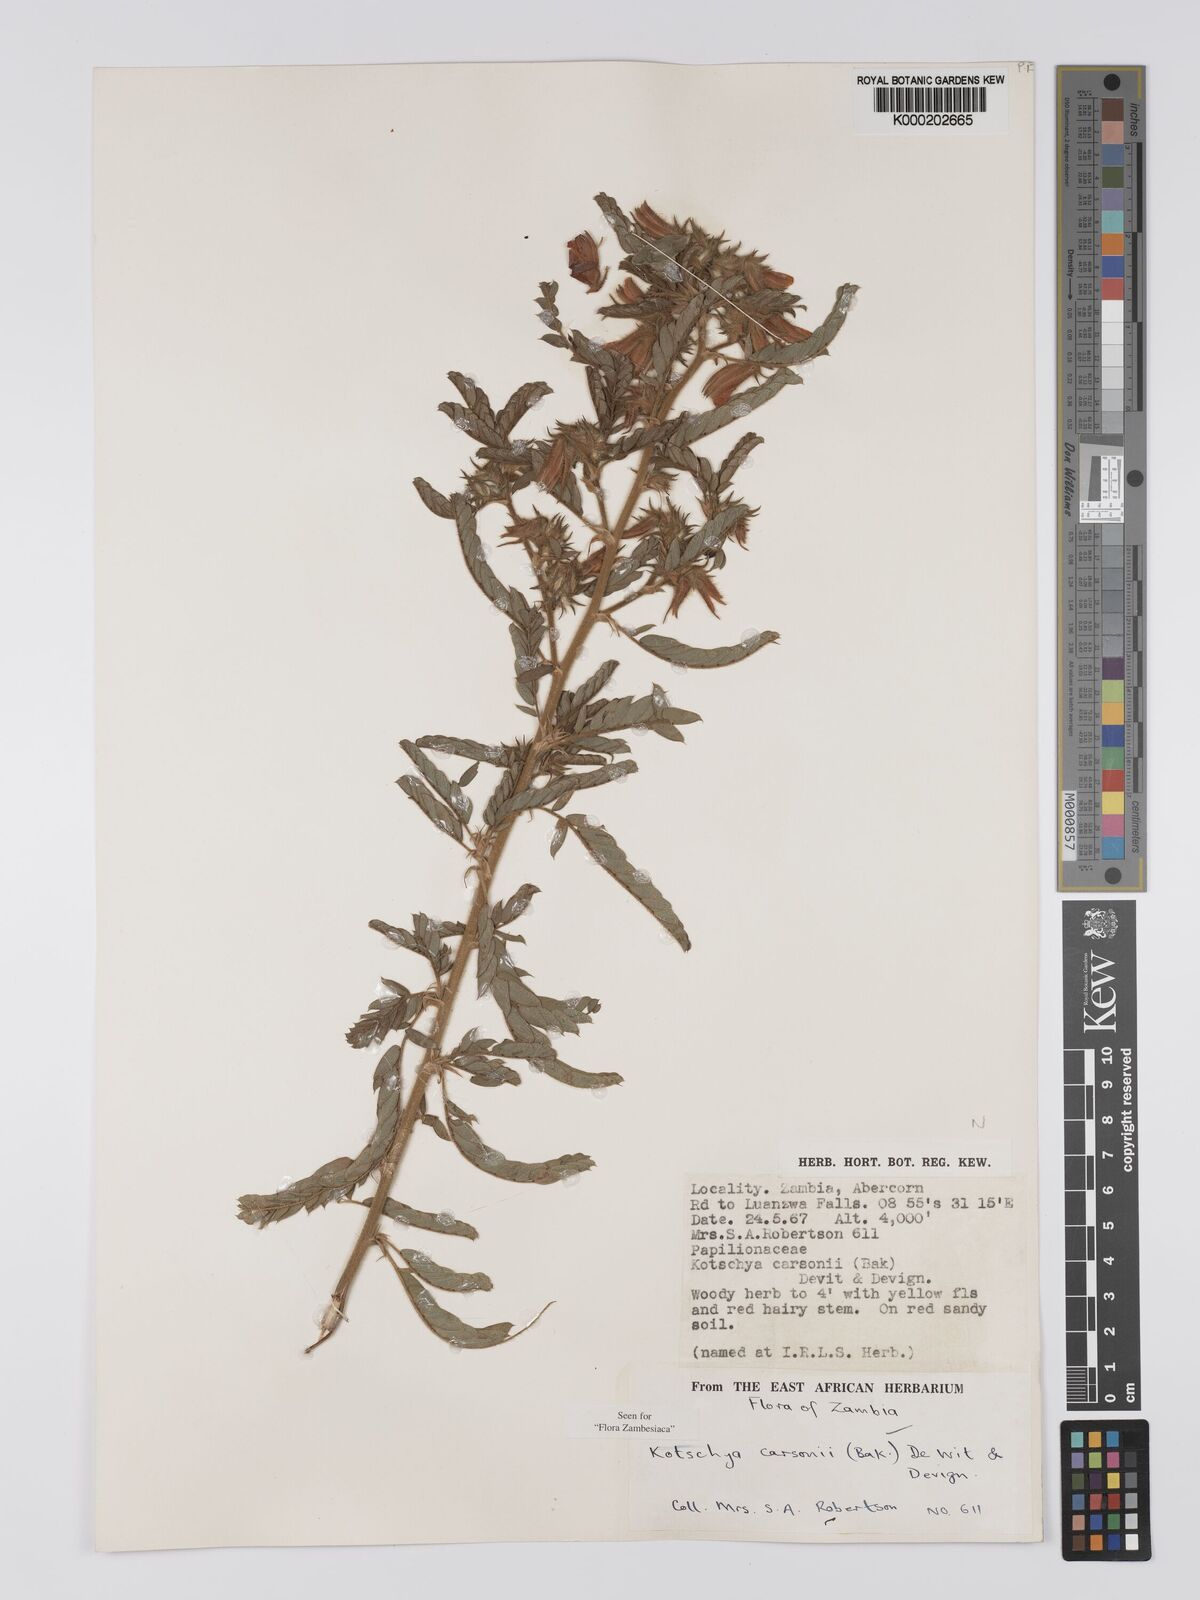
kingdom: Plantae
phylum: Tracheophyta
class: Magnoliopsida
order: Fabales
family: Fabaceae
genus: Kotschya
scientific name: Kotschya carsonii
